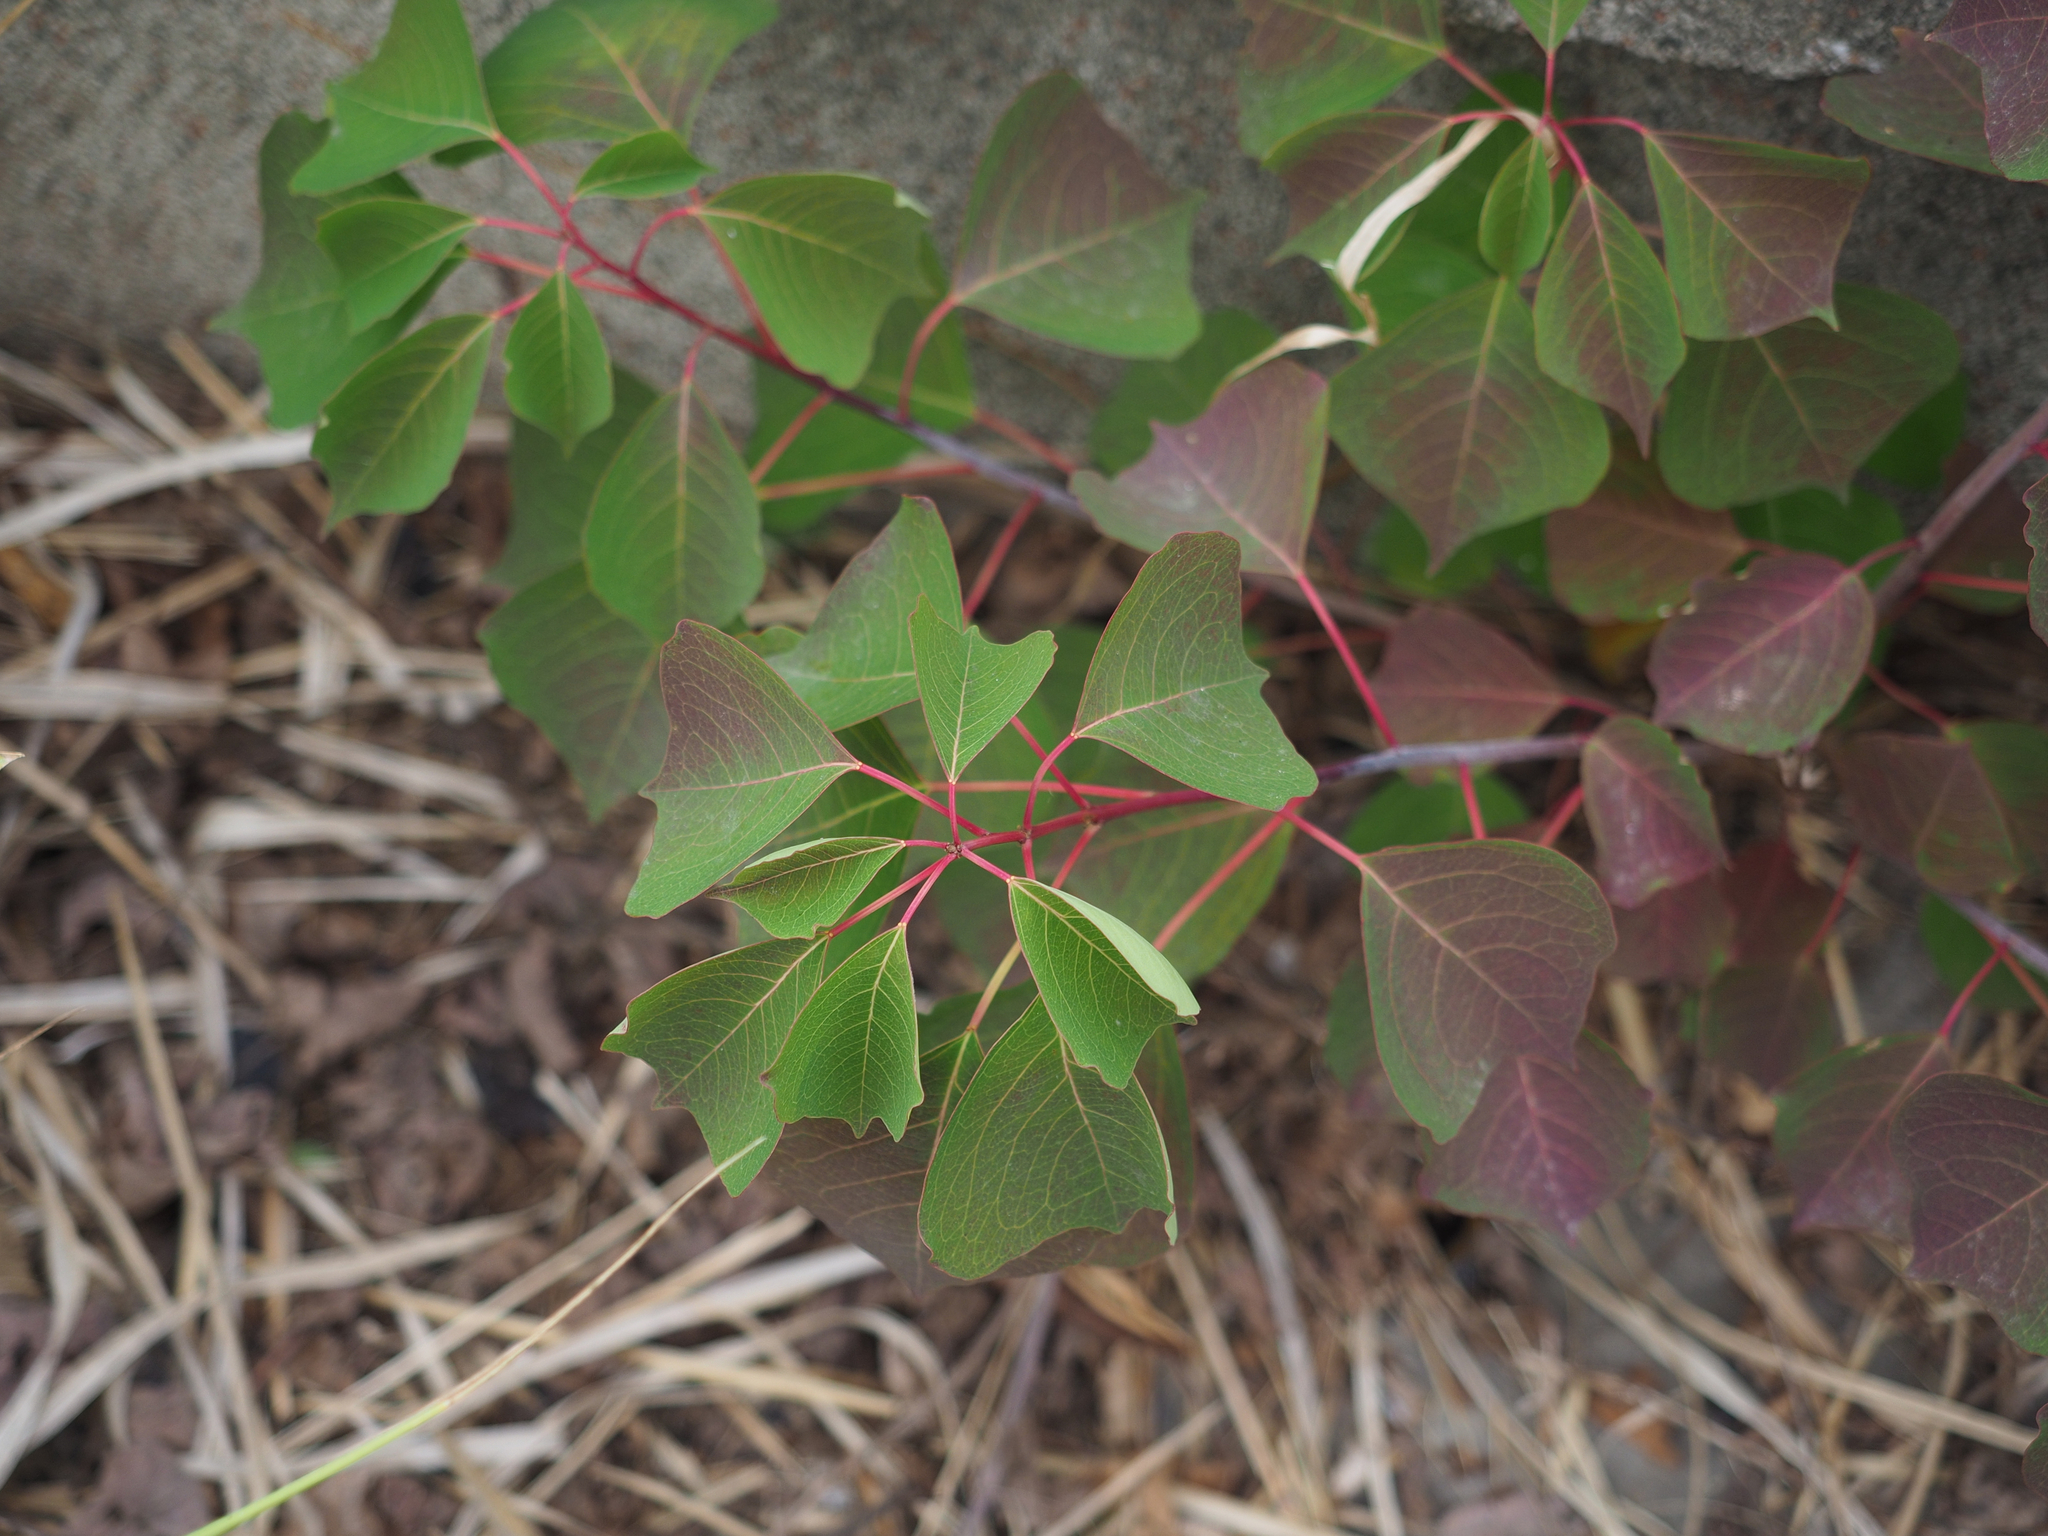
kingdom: Plantae
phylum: Tracheophyta
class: Magnoliopsida
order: Malpighiales
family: Euphorbiaceae
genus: Sapium
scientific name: Sapium
